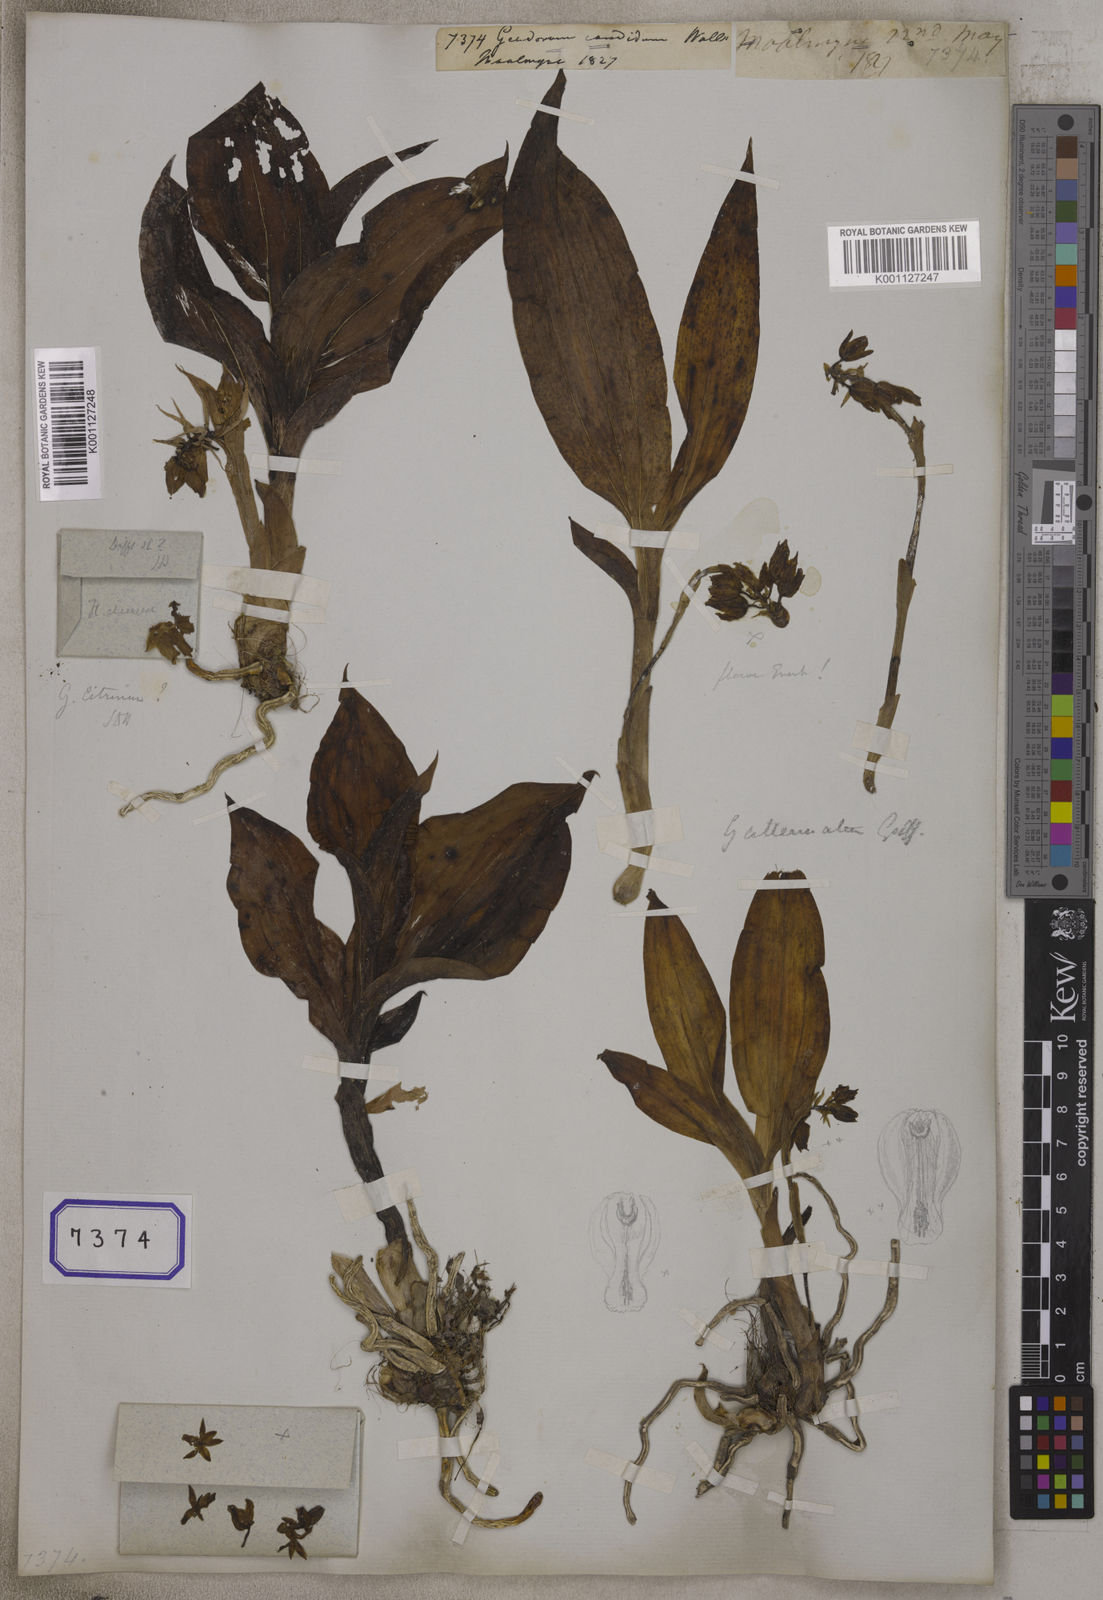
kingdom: Plantae
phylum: Tracheophyta
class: Liliopsida
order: Asparagales
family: Orchidaceae
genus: Geodorum
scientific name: Geodorum
